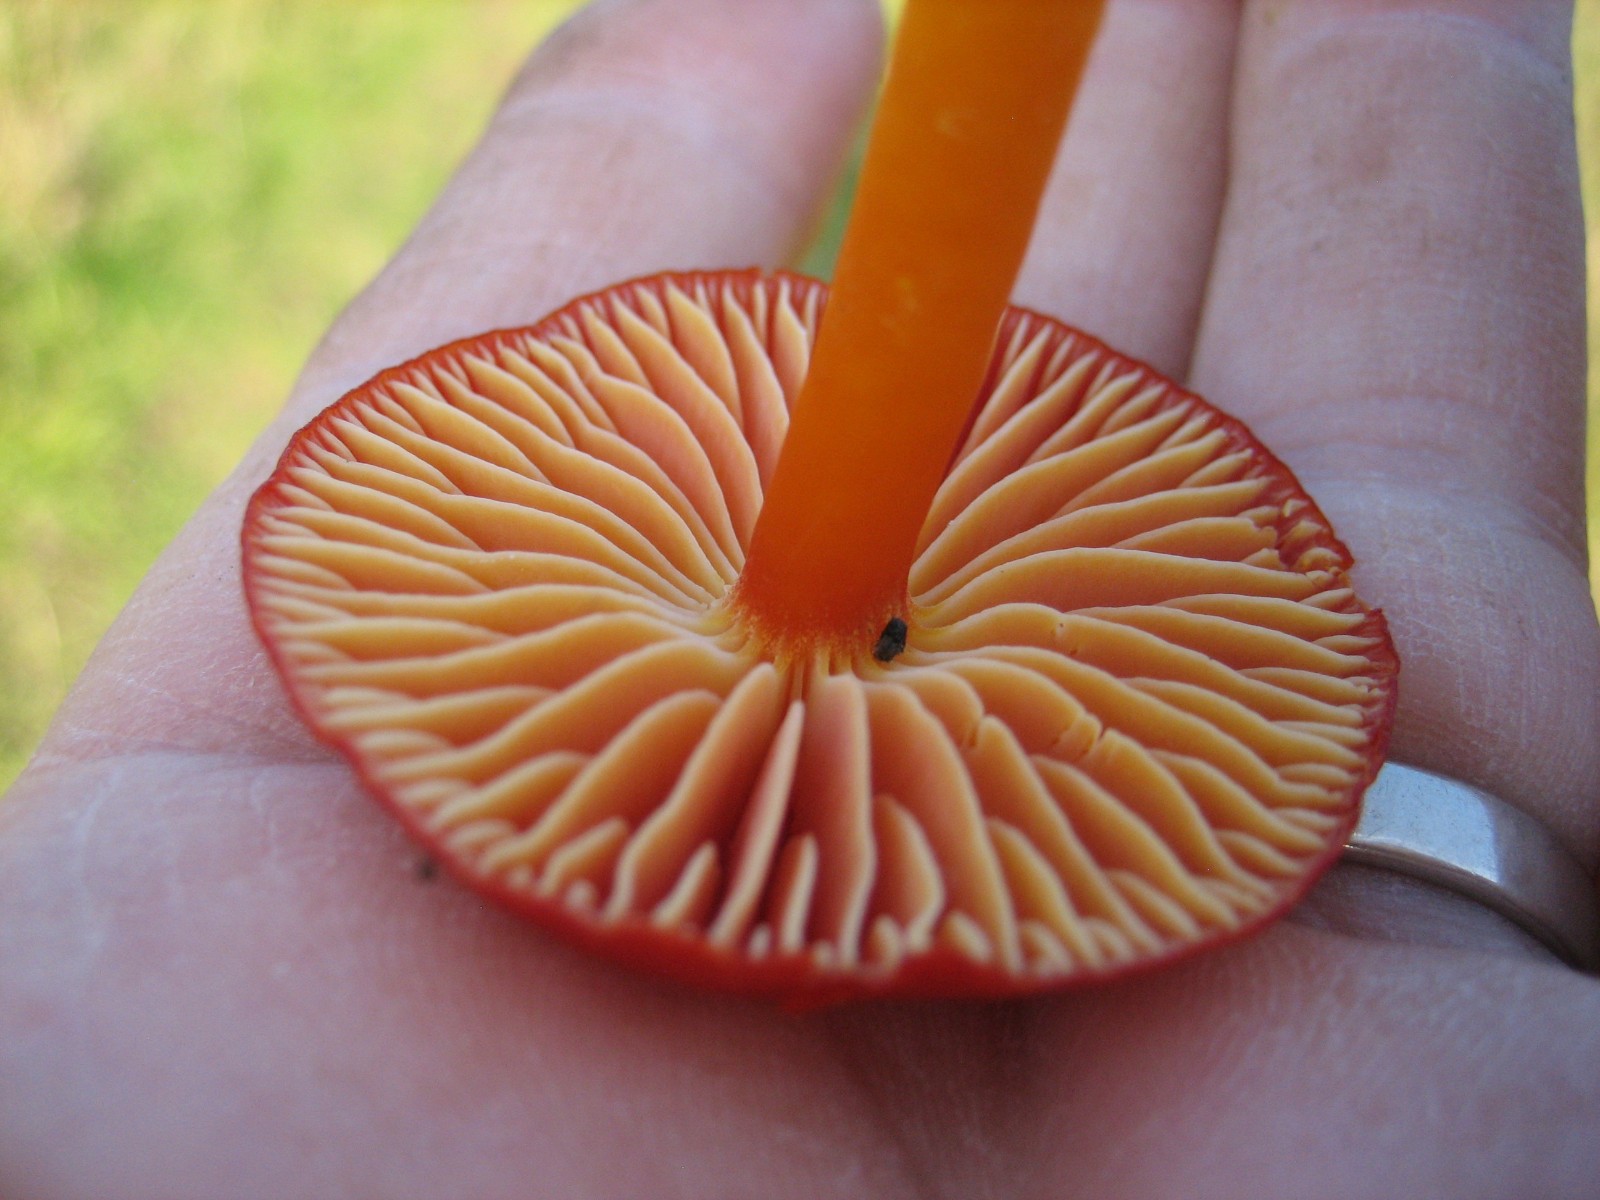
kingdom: Fungi
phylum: Basidiomycota
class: Agaricomycetes
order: Agaricales
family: Hygrophoraceae
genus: Hygrocybe
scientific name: Hygrocybe coccinea
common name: cinnober-vokshat
